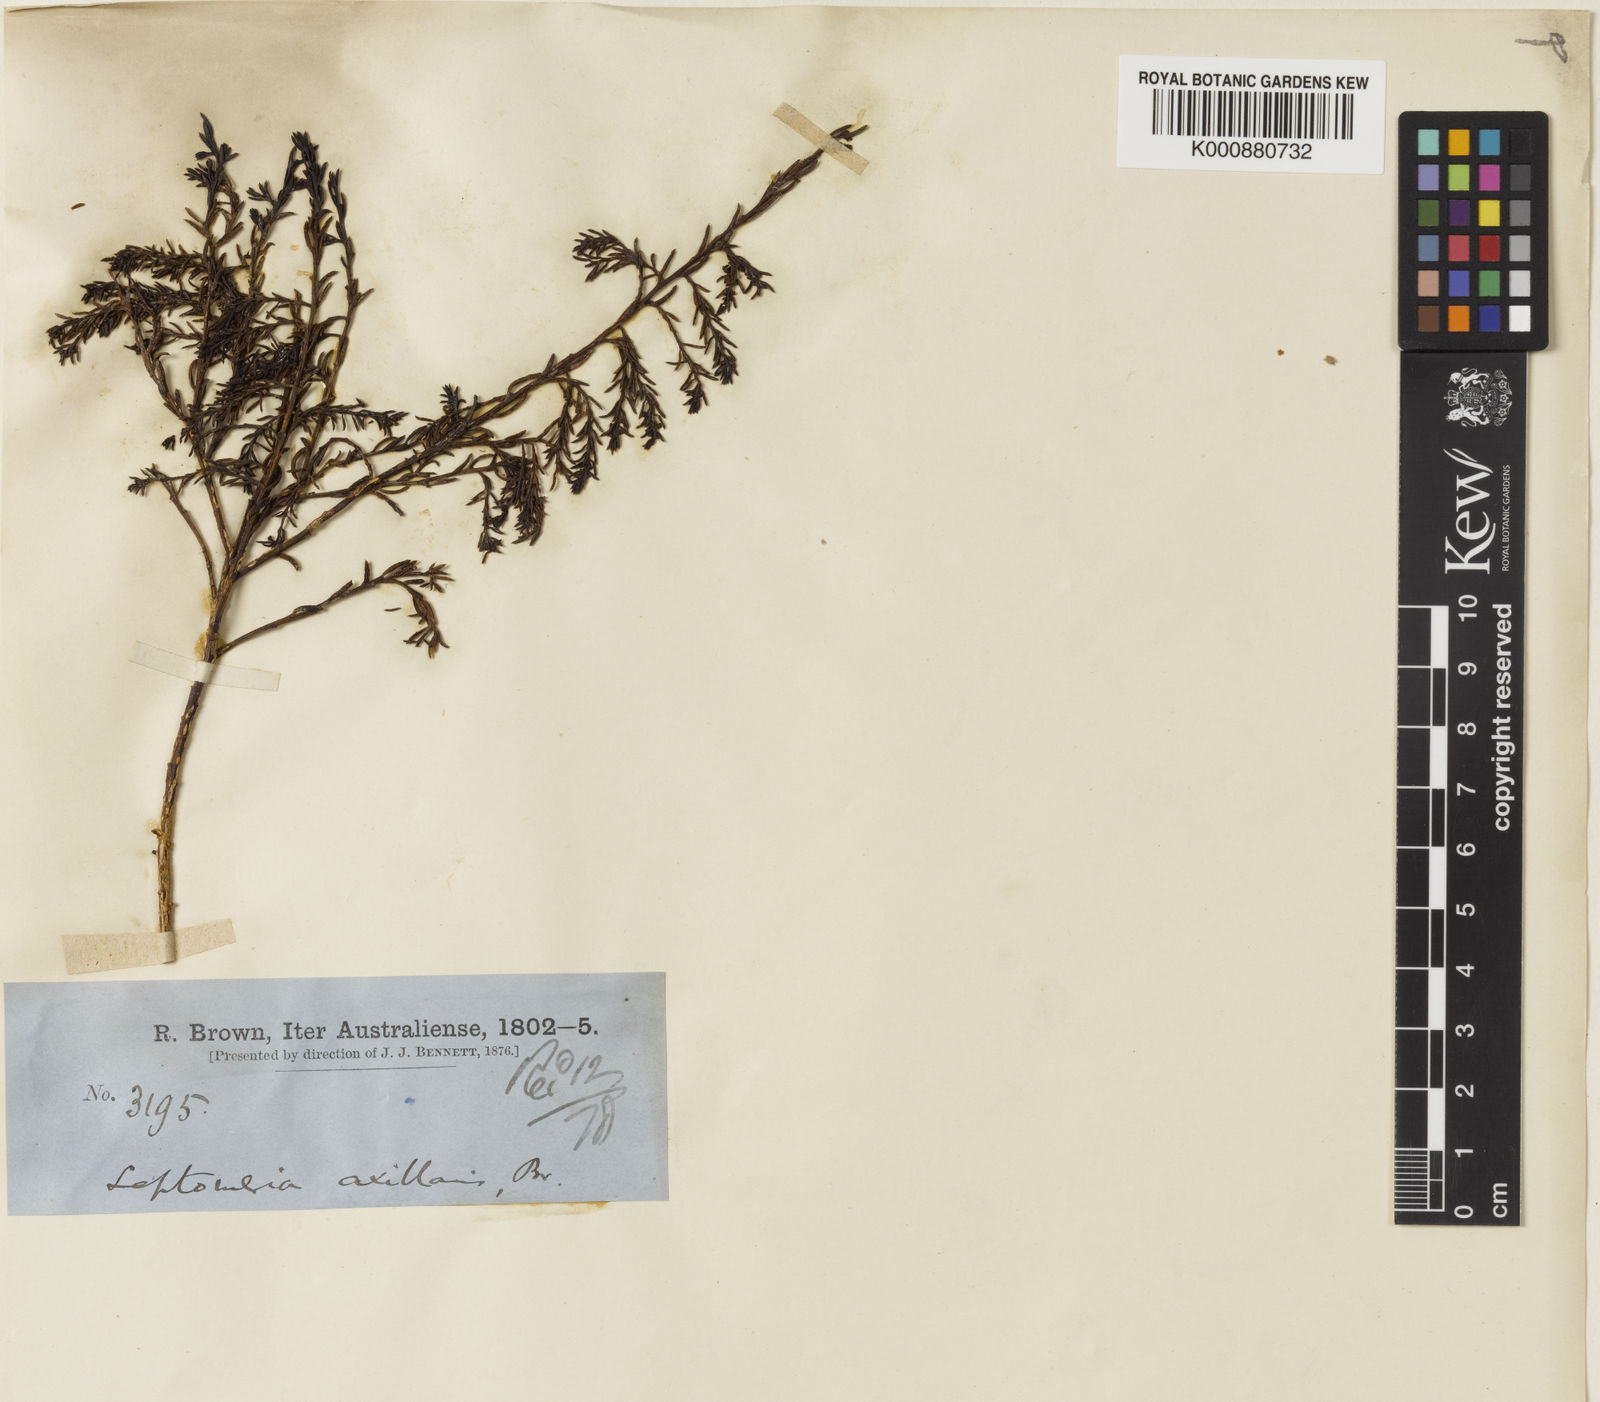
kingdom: Plantae
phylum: Tracheophyta
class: Magnoliopsida
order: Santalales
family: Amphorogynaceae
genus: Leptomeria
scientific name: Leptomeria axillaris
